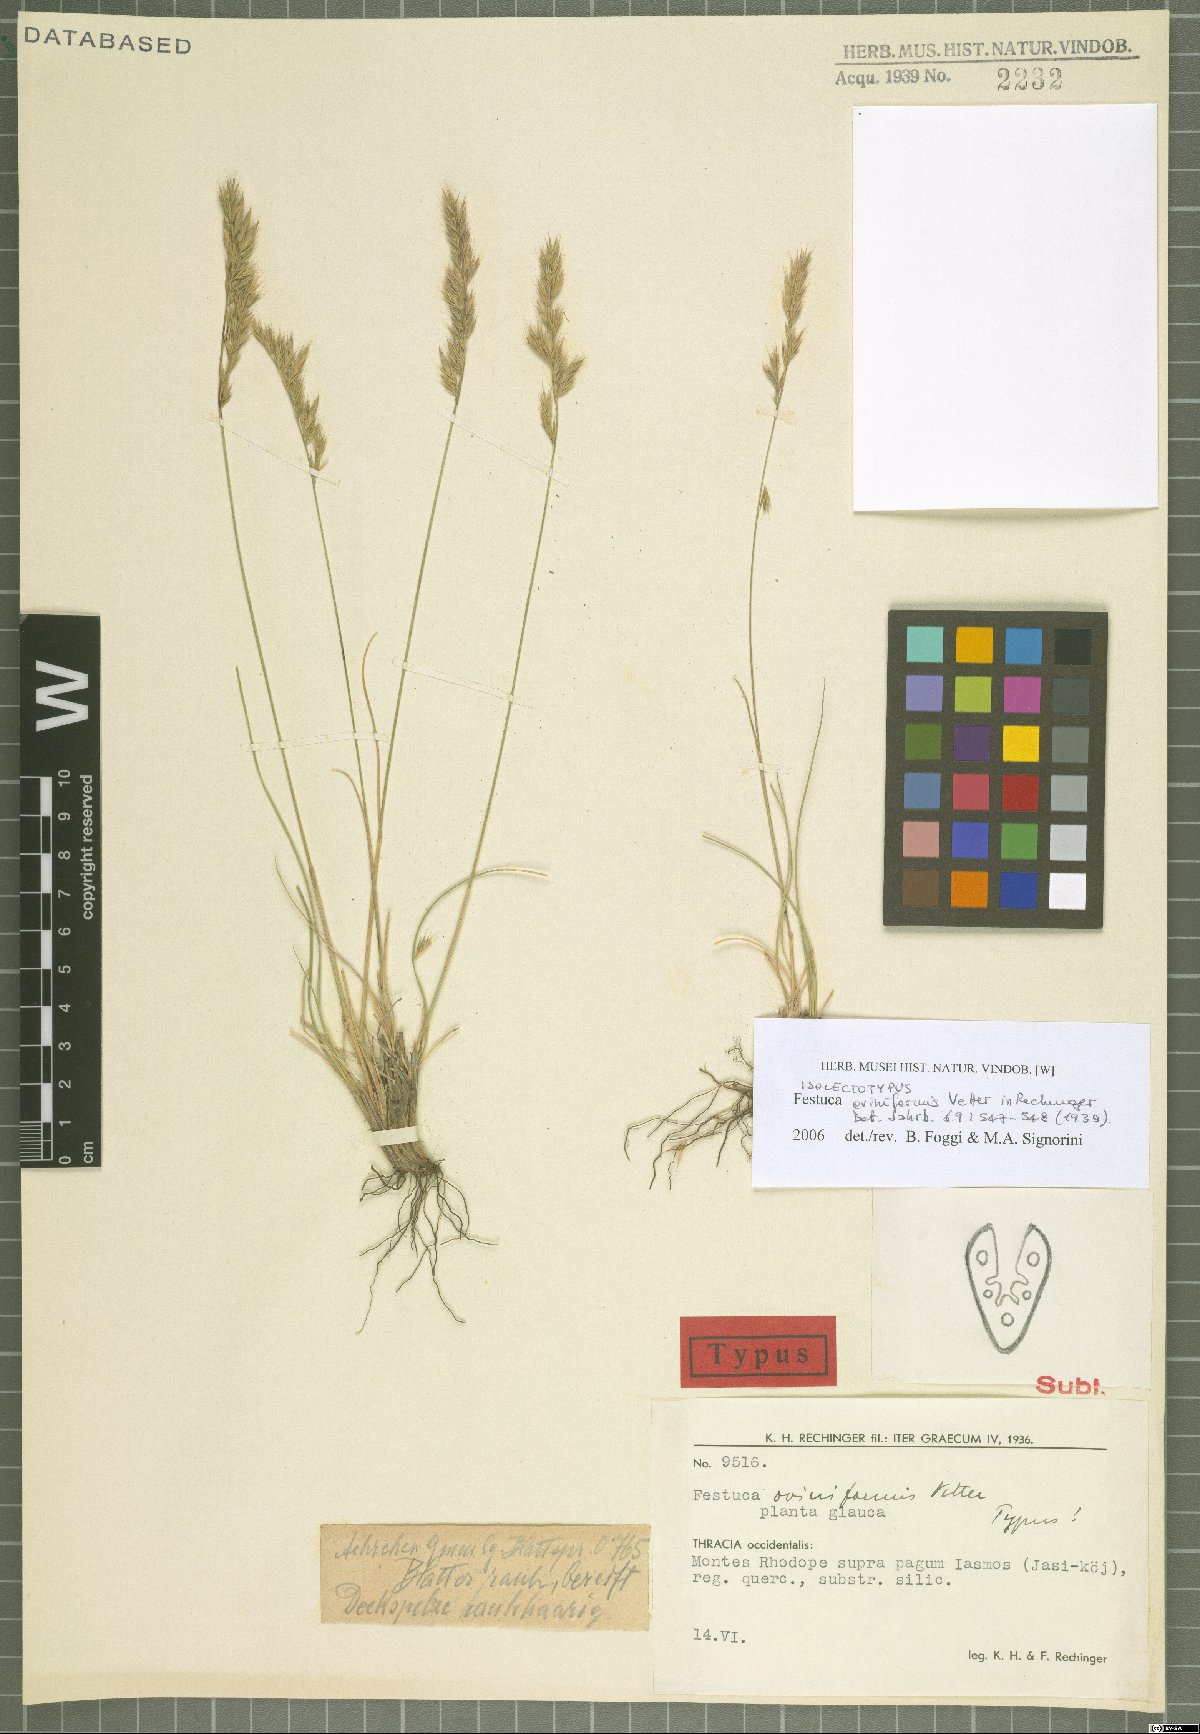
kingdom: Plantae
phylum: Tracheophyta
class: Liliopsida
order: Poales
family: Poaceae
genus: Festuca
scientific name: Festuca oviniformis
